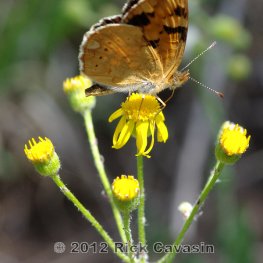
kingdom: Animalia
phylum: Arthropoda
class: Insecta
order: Lepidoptera
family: Nymphalidae
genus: Phyciodes
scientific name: Phyciodes batesii
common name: Tawny Crescent
